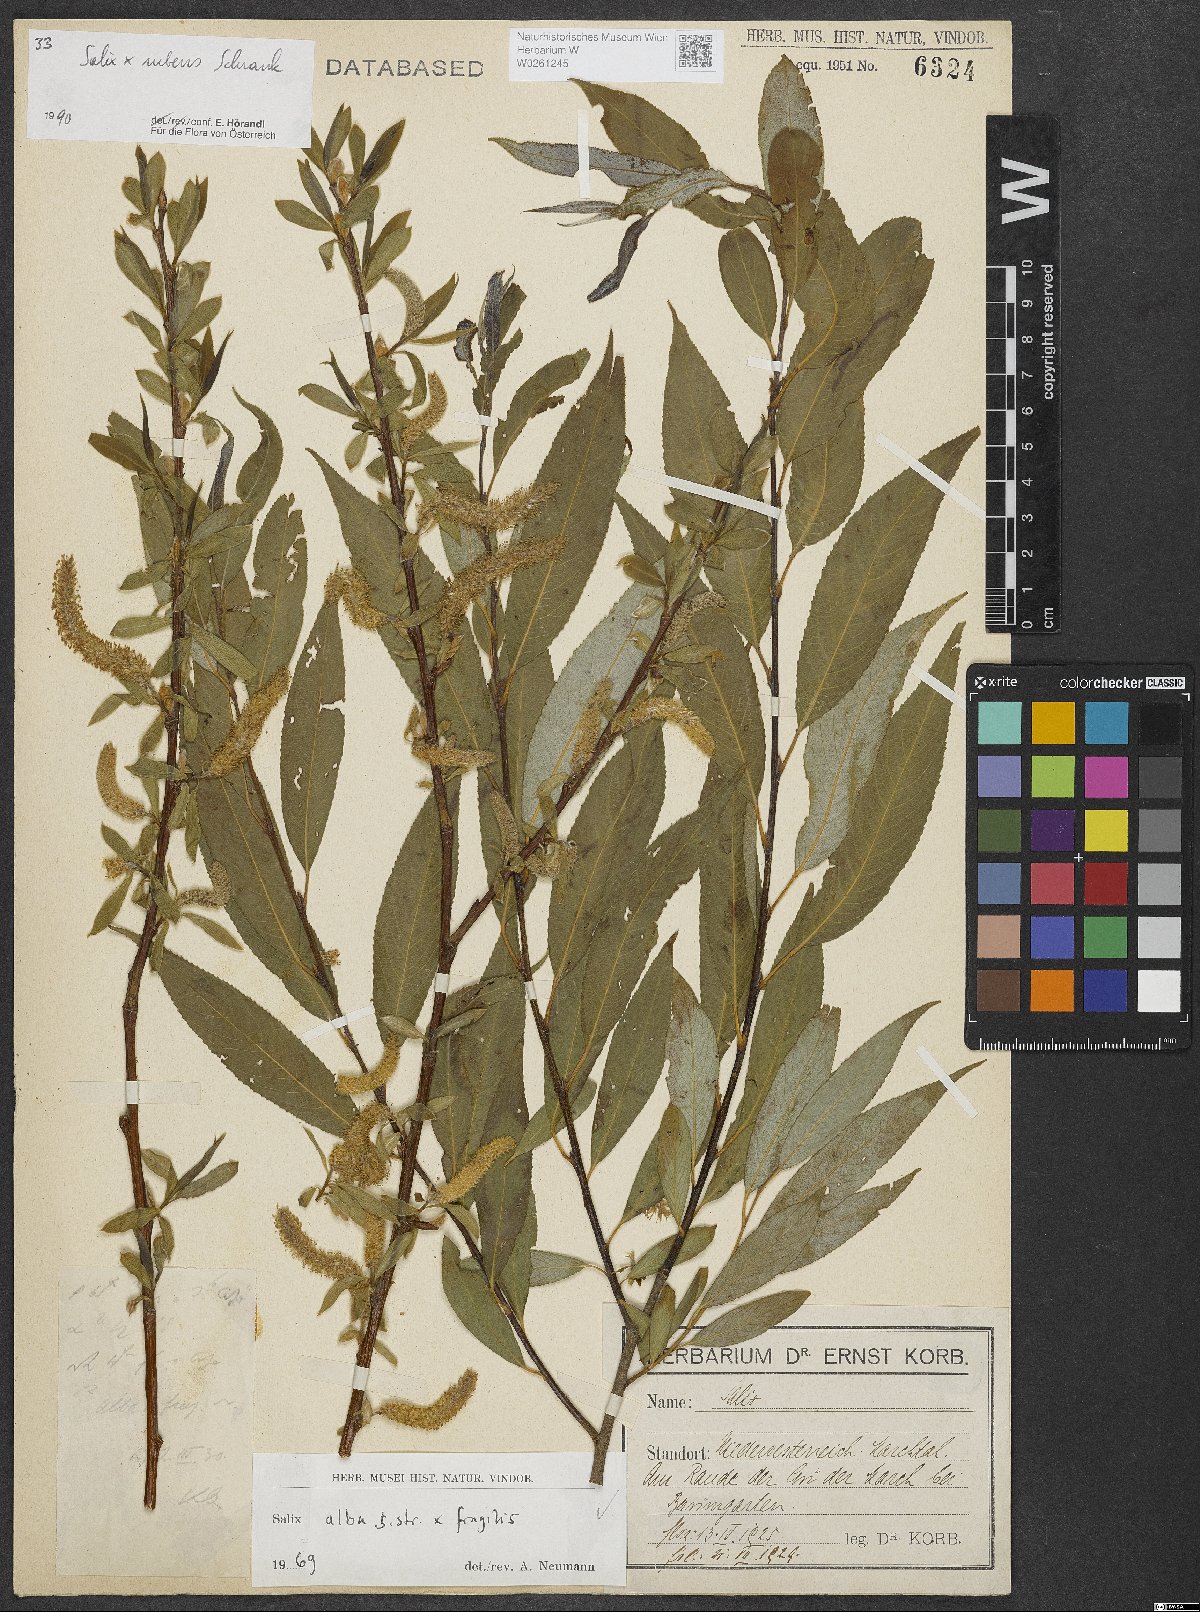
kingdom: Plantae
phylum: Tracheophyta
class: Magnoliopsida
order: Malpighiales
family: Salicaceae
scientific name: Salicaceae
